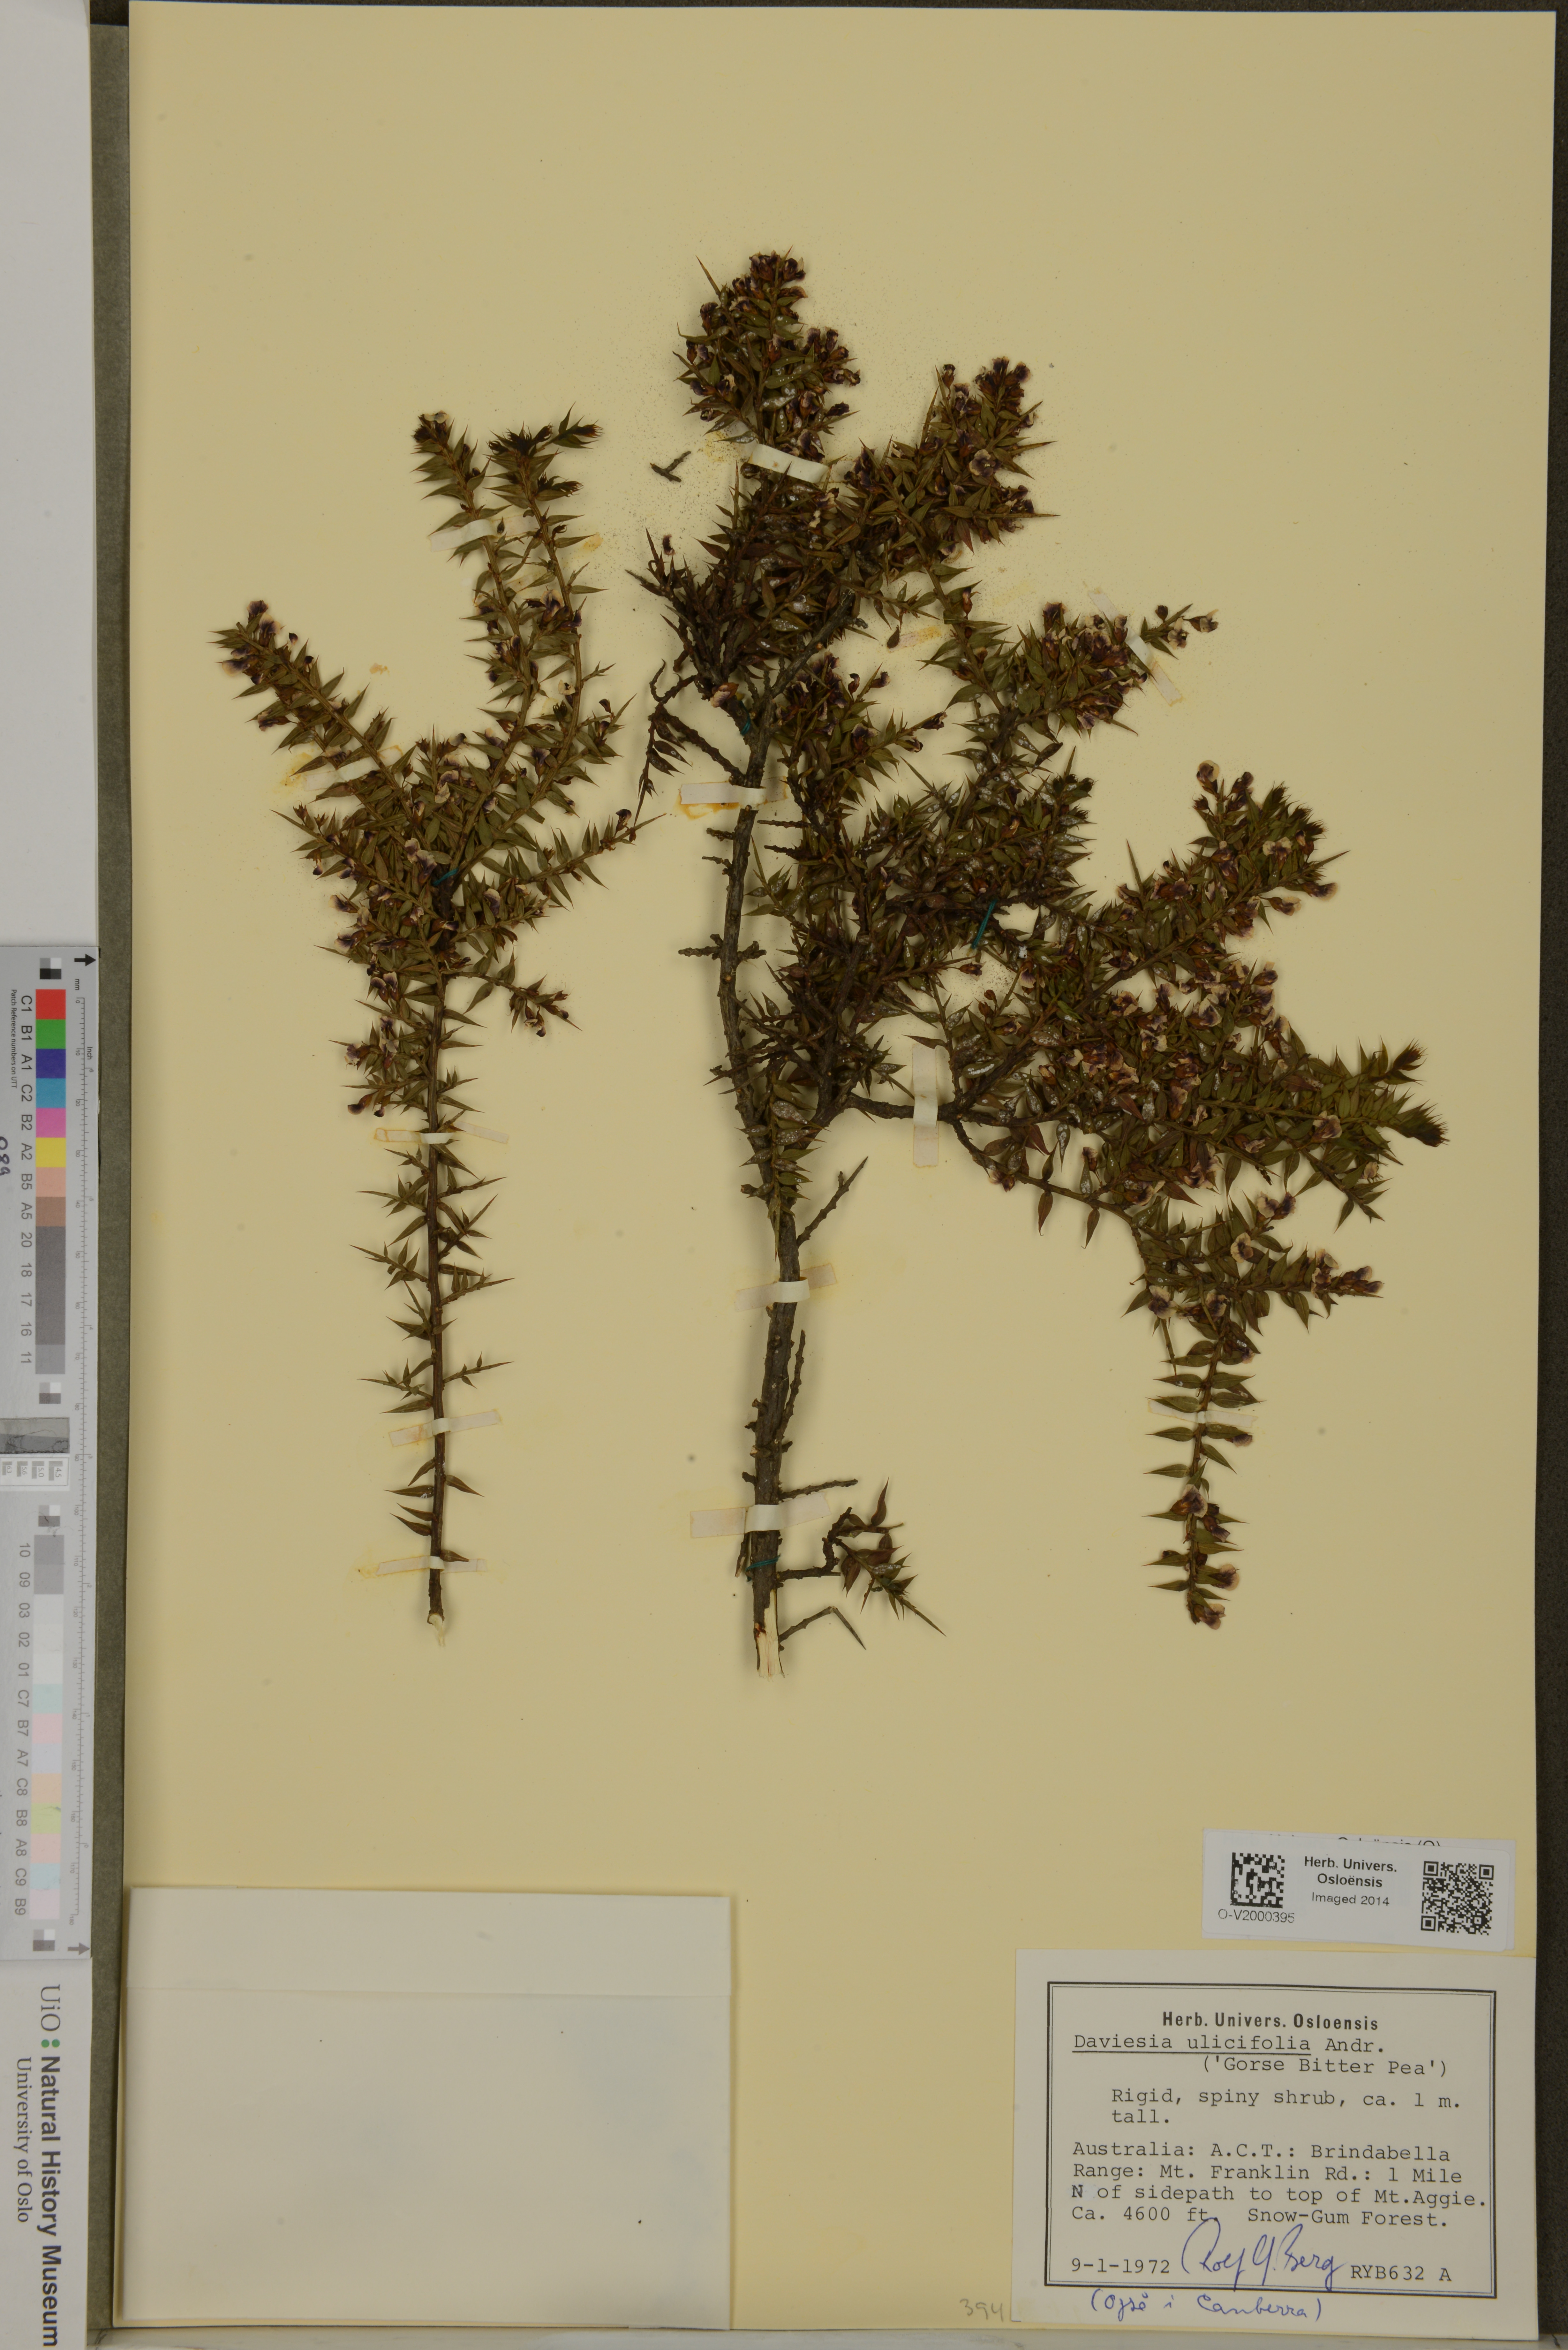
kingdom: Plantae
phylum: Tracheophyta
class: Magnoliopsida
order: Fabales
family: Fabaceae
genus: Daviesia
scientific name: Daviesia ulicifolia
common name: Gorse bitter-pea
